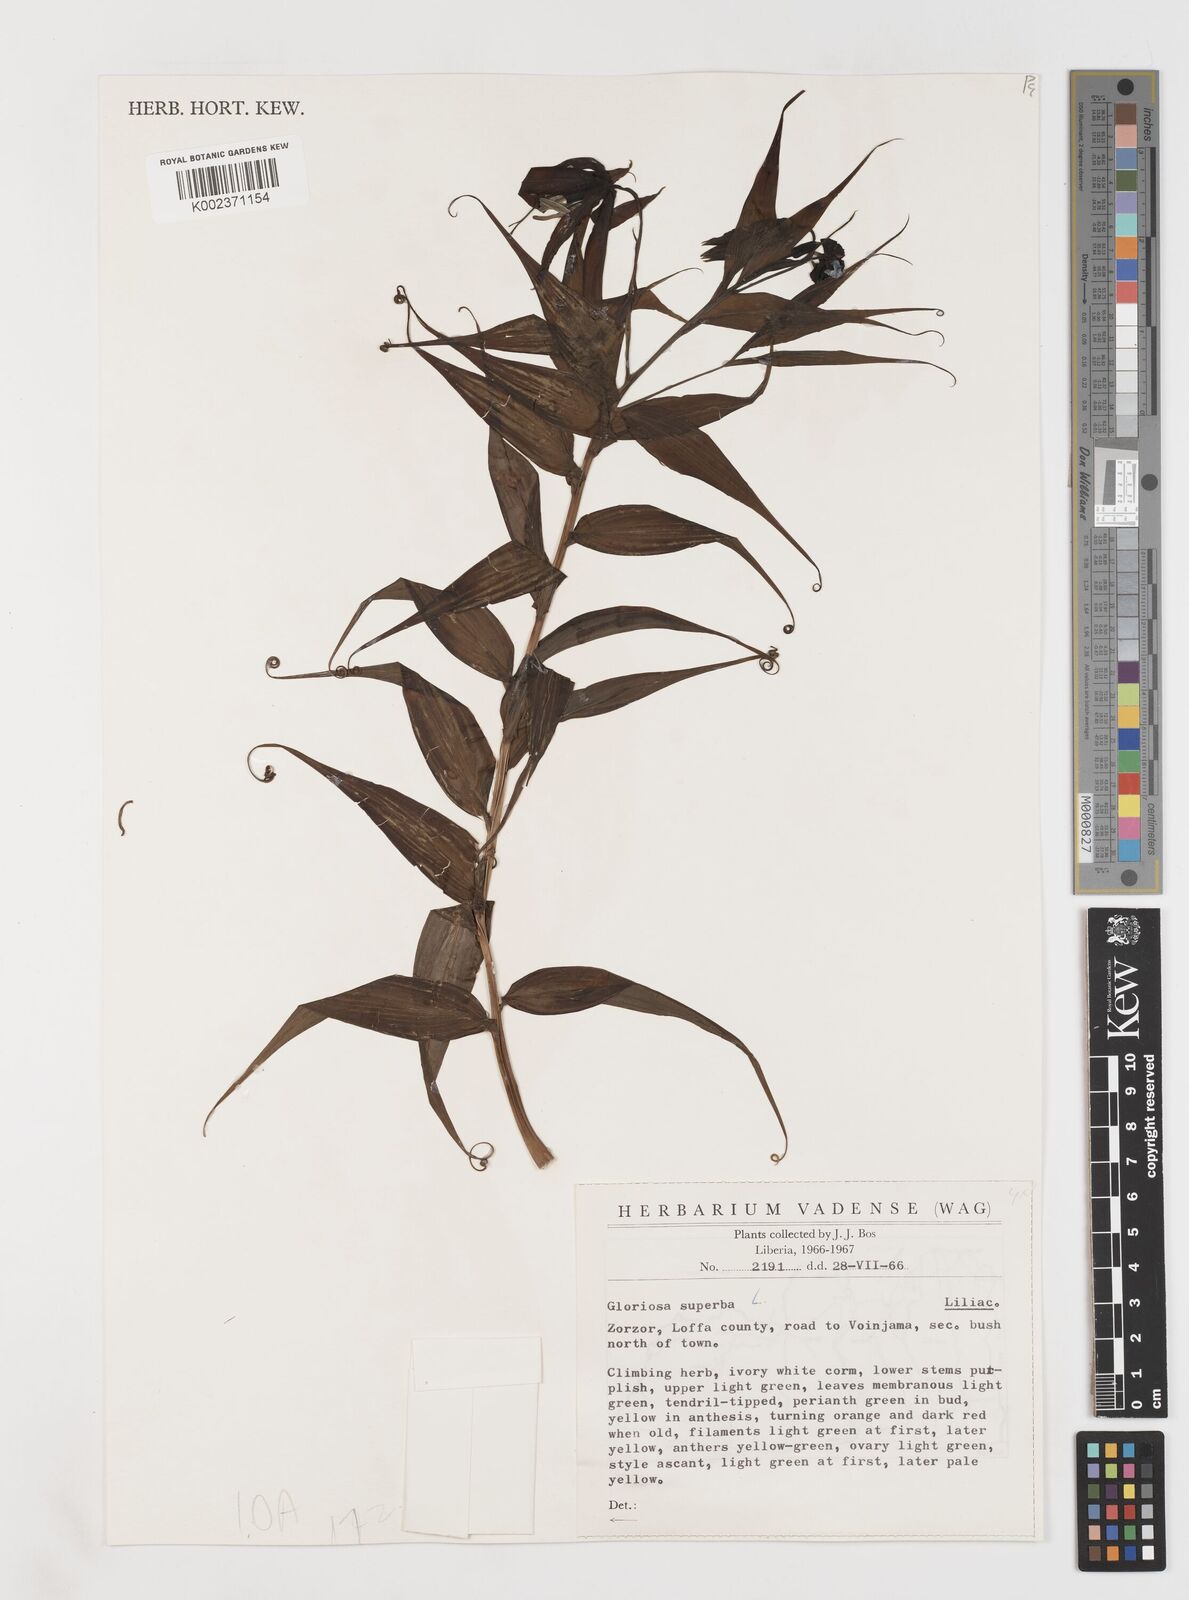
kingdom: Plantae
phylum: Tracheophyta
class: Liliopsida
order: Liliales
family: Colchicaceae
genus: Gloriosa
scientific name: Gloriosa simplex
